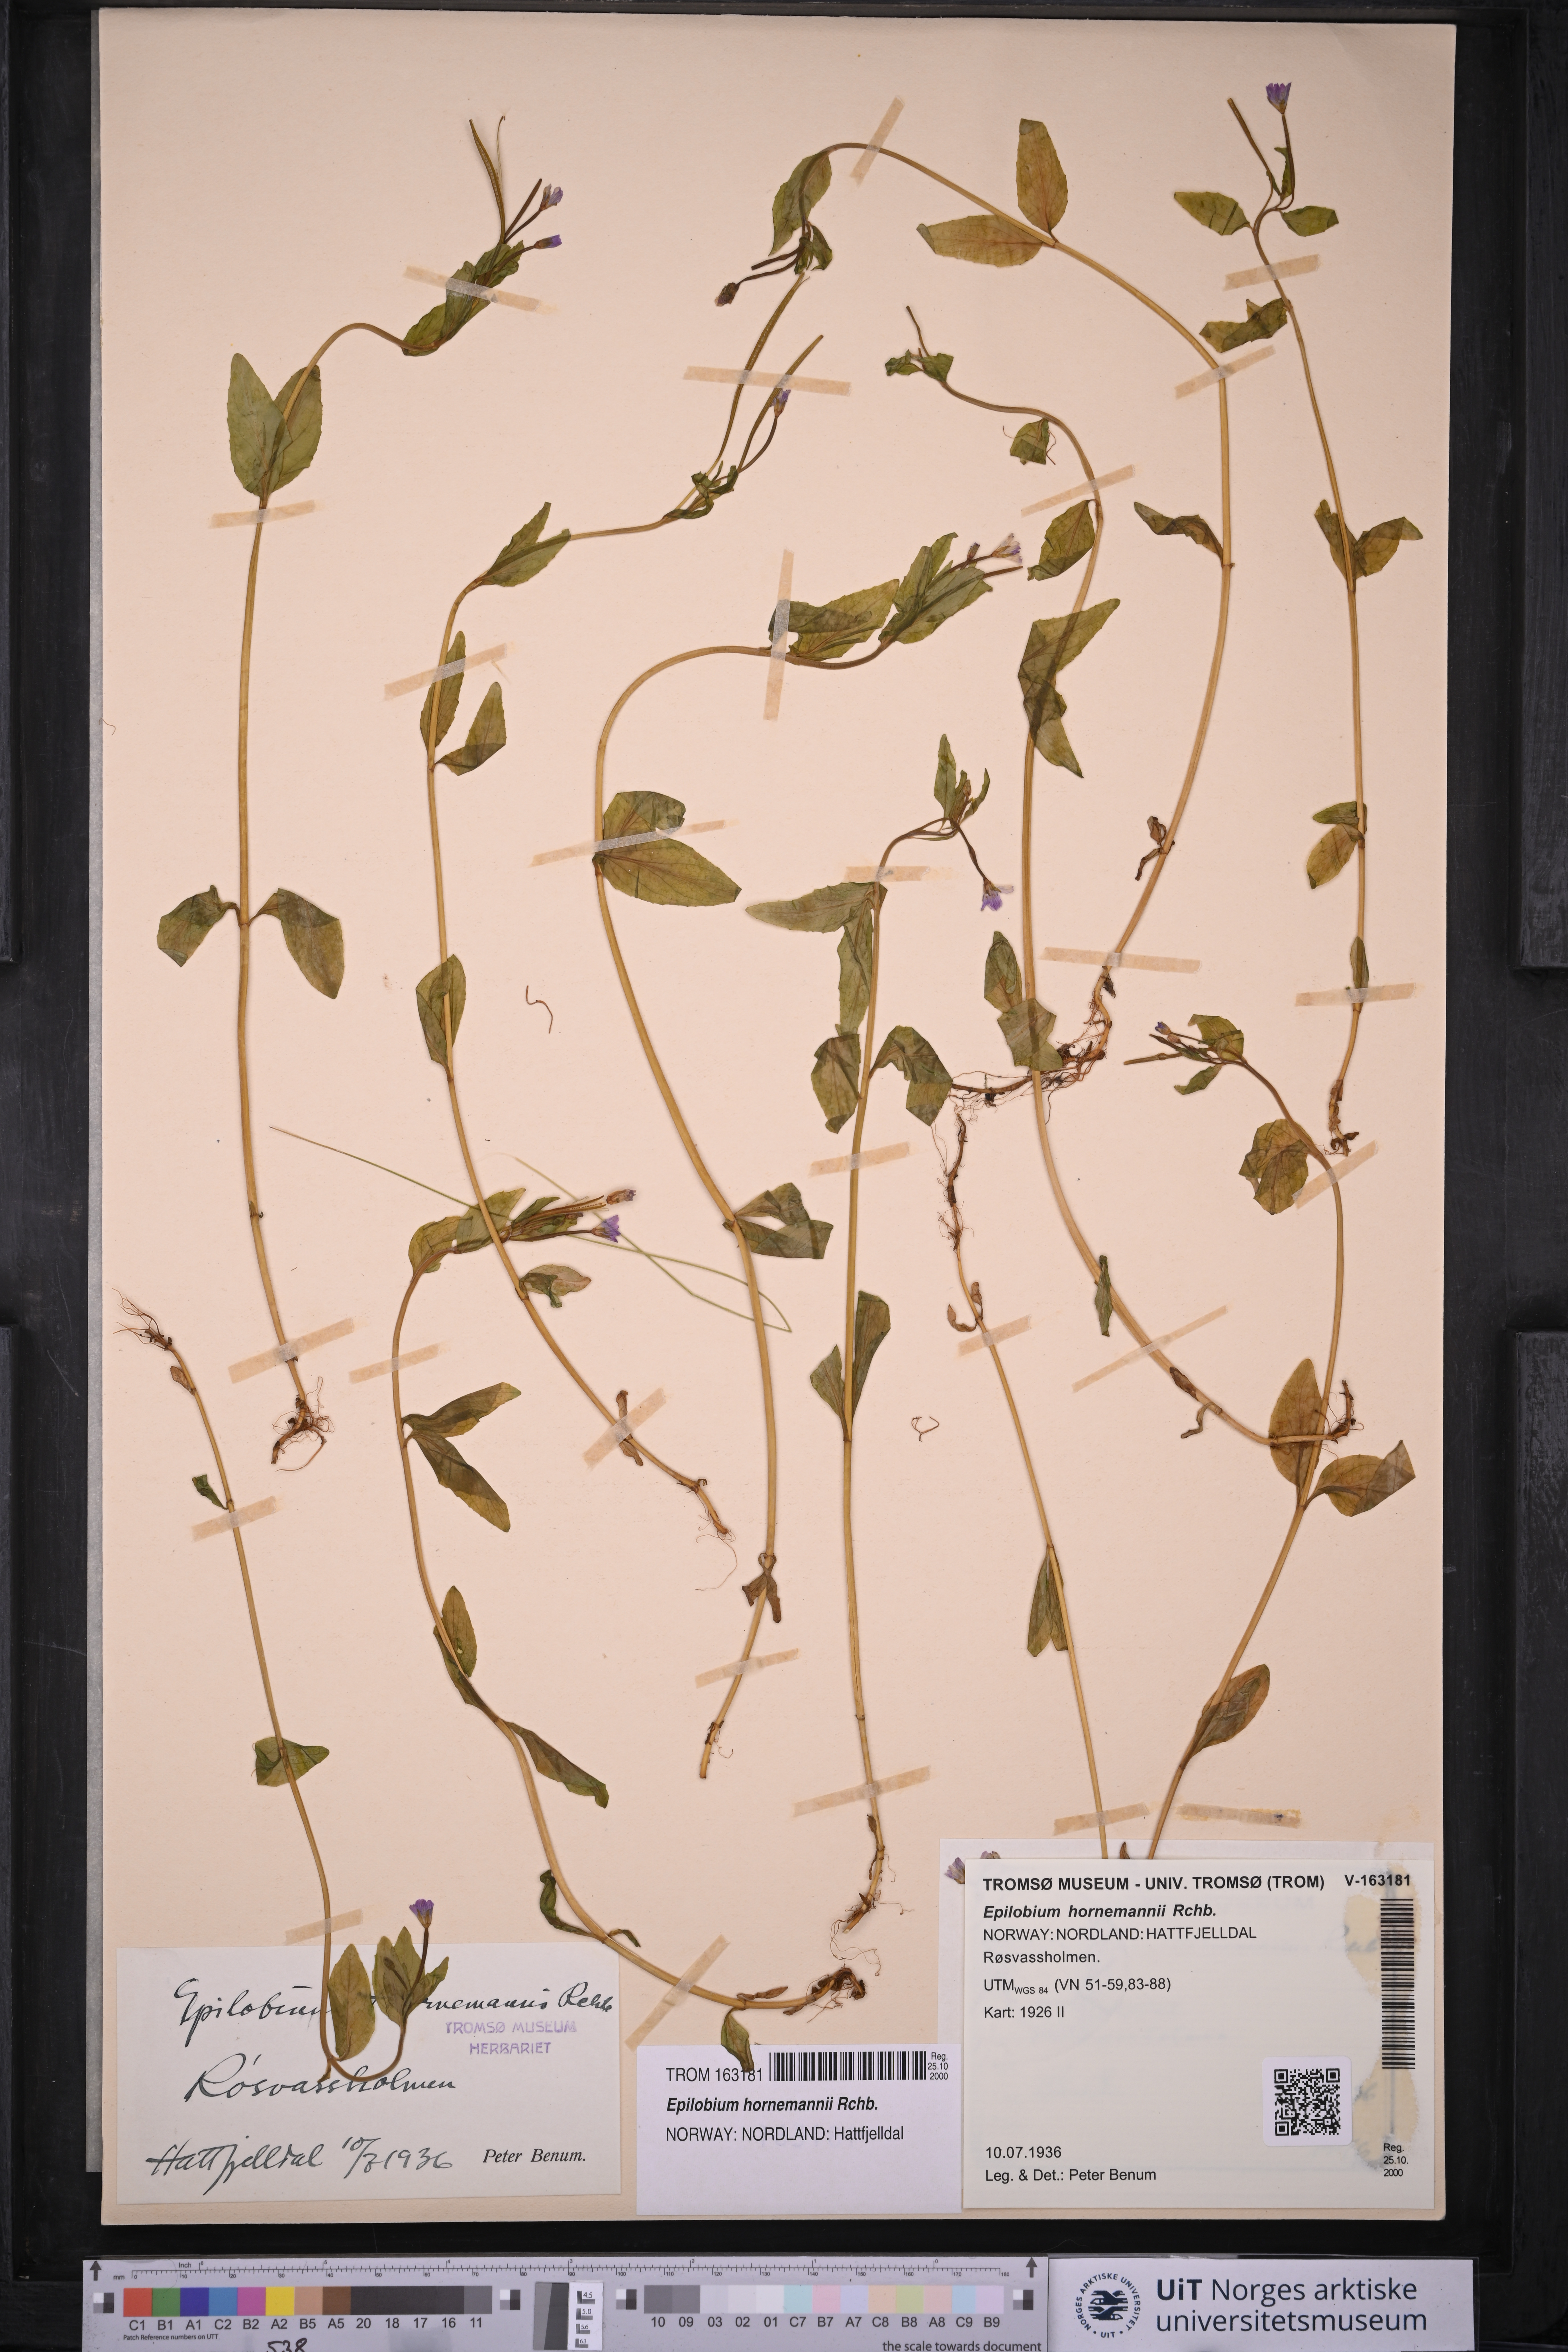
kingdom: Plantae
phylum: Tracheophyta
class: Magnoliopsida
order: Myrtales
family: Onagraceae
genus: Epilobium
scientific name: Epilobium hornemannii
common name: Hornemann's willowherb
